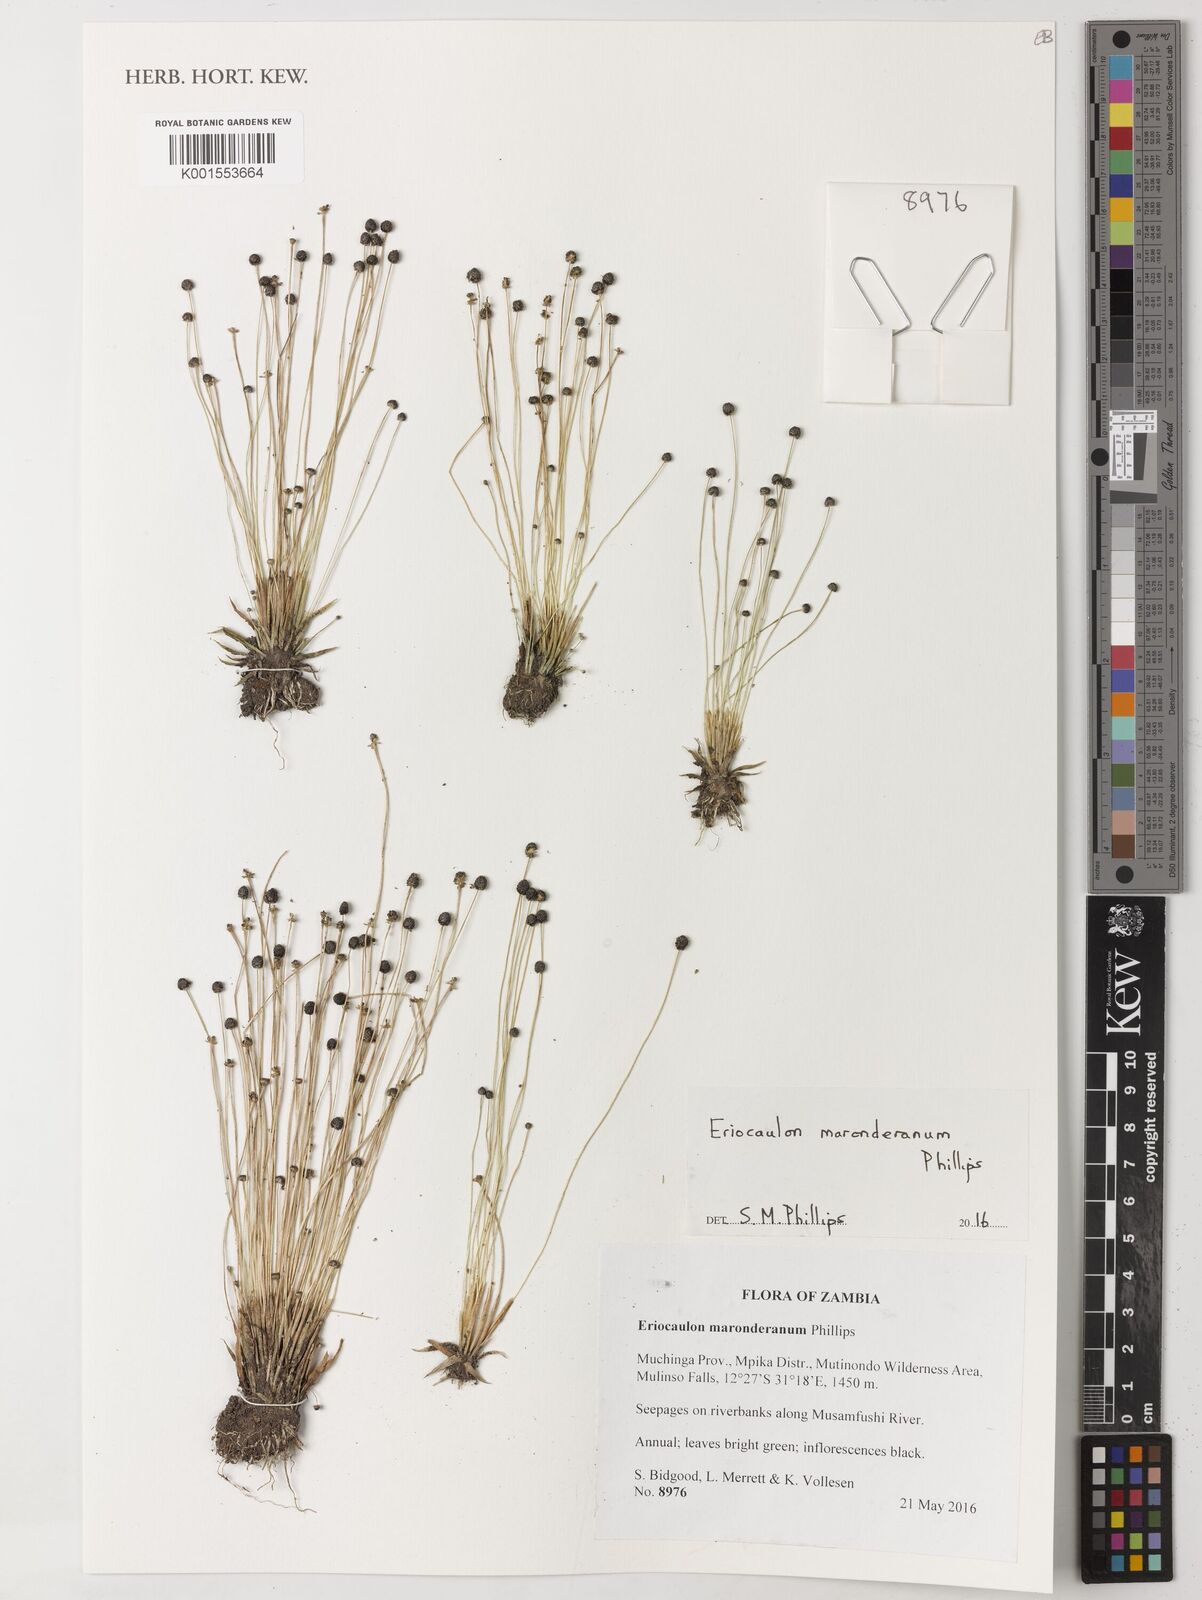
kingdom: Plantae
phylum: Tracheophyta
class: Liliopsida
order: Poales
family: Eriocaulaceae
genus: Eriocaulon
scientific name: Eriocaulon maronderanum
